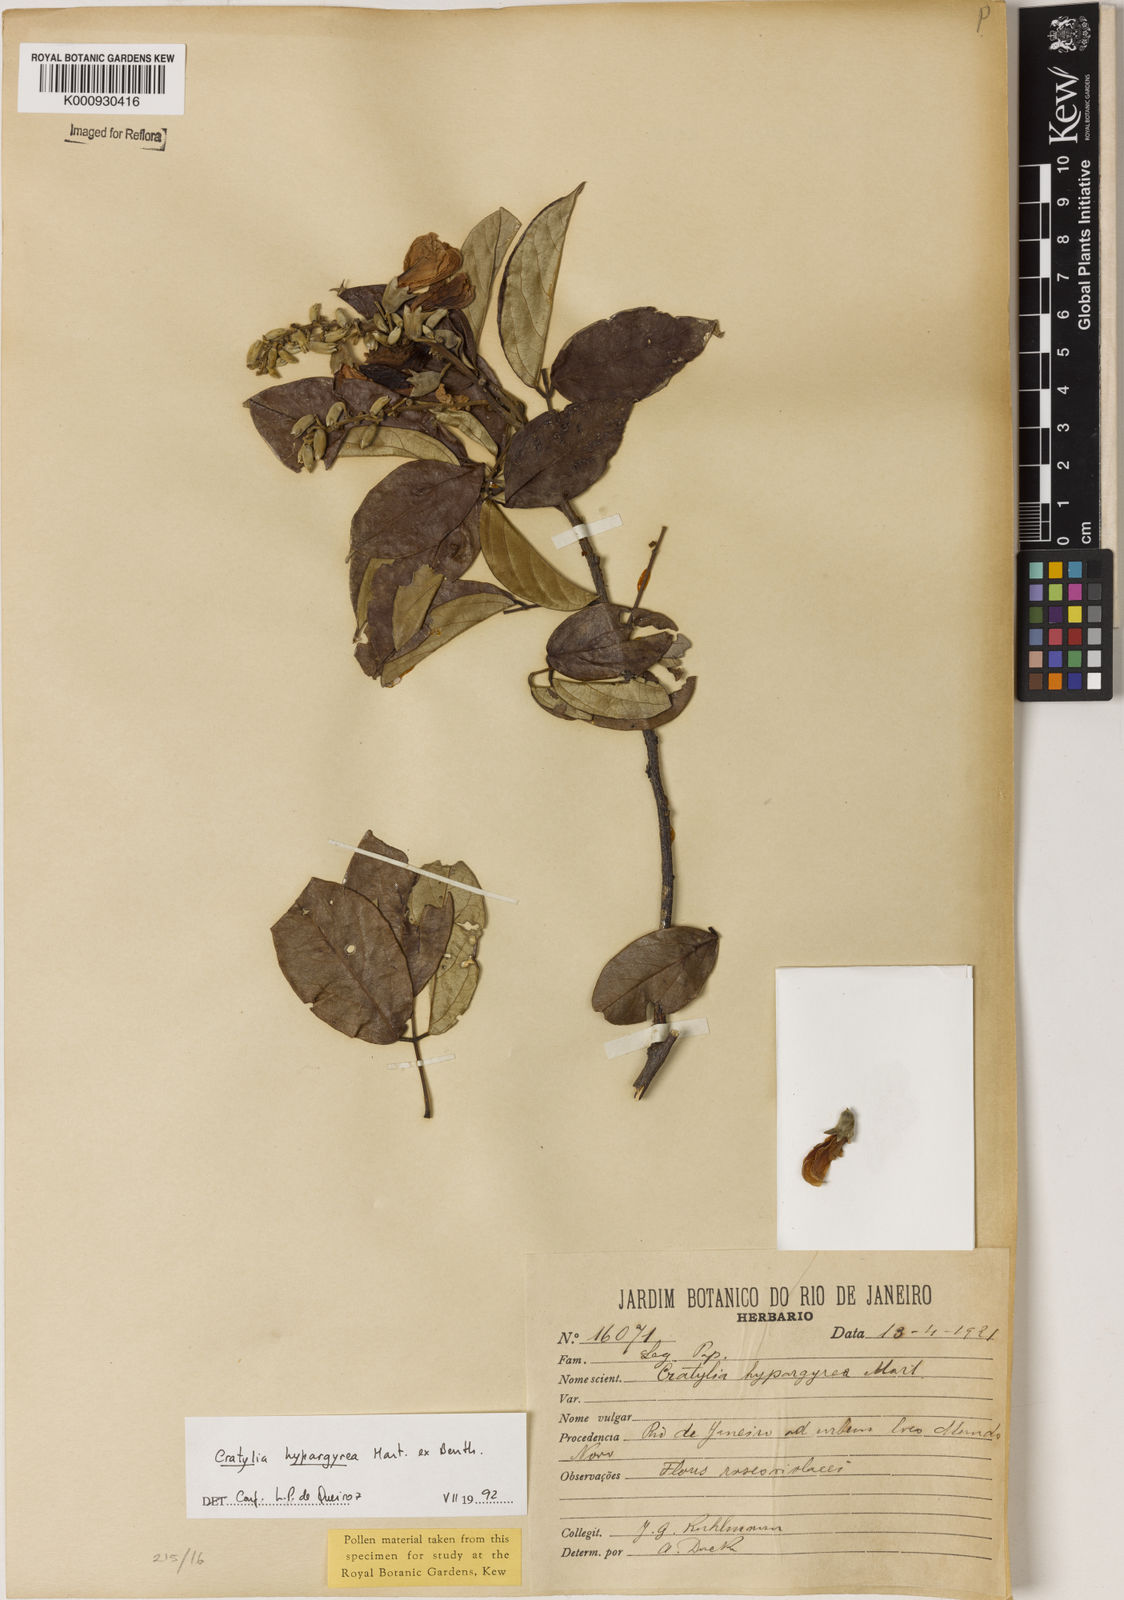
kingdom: Plantae
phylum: Tracheophyta
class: Magnoliopsida
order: Fabales
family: Fabaceae
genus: Cratylia
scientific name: Cratylia
